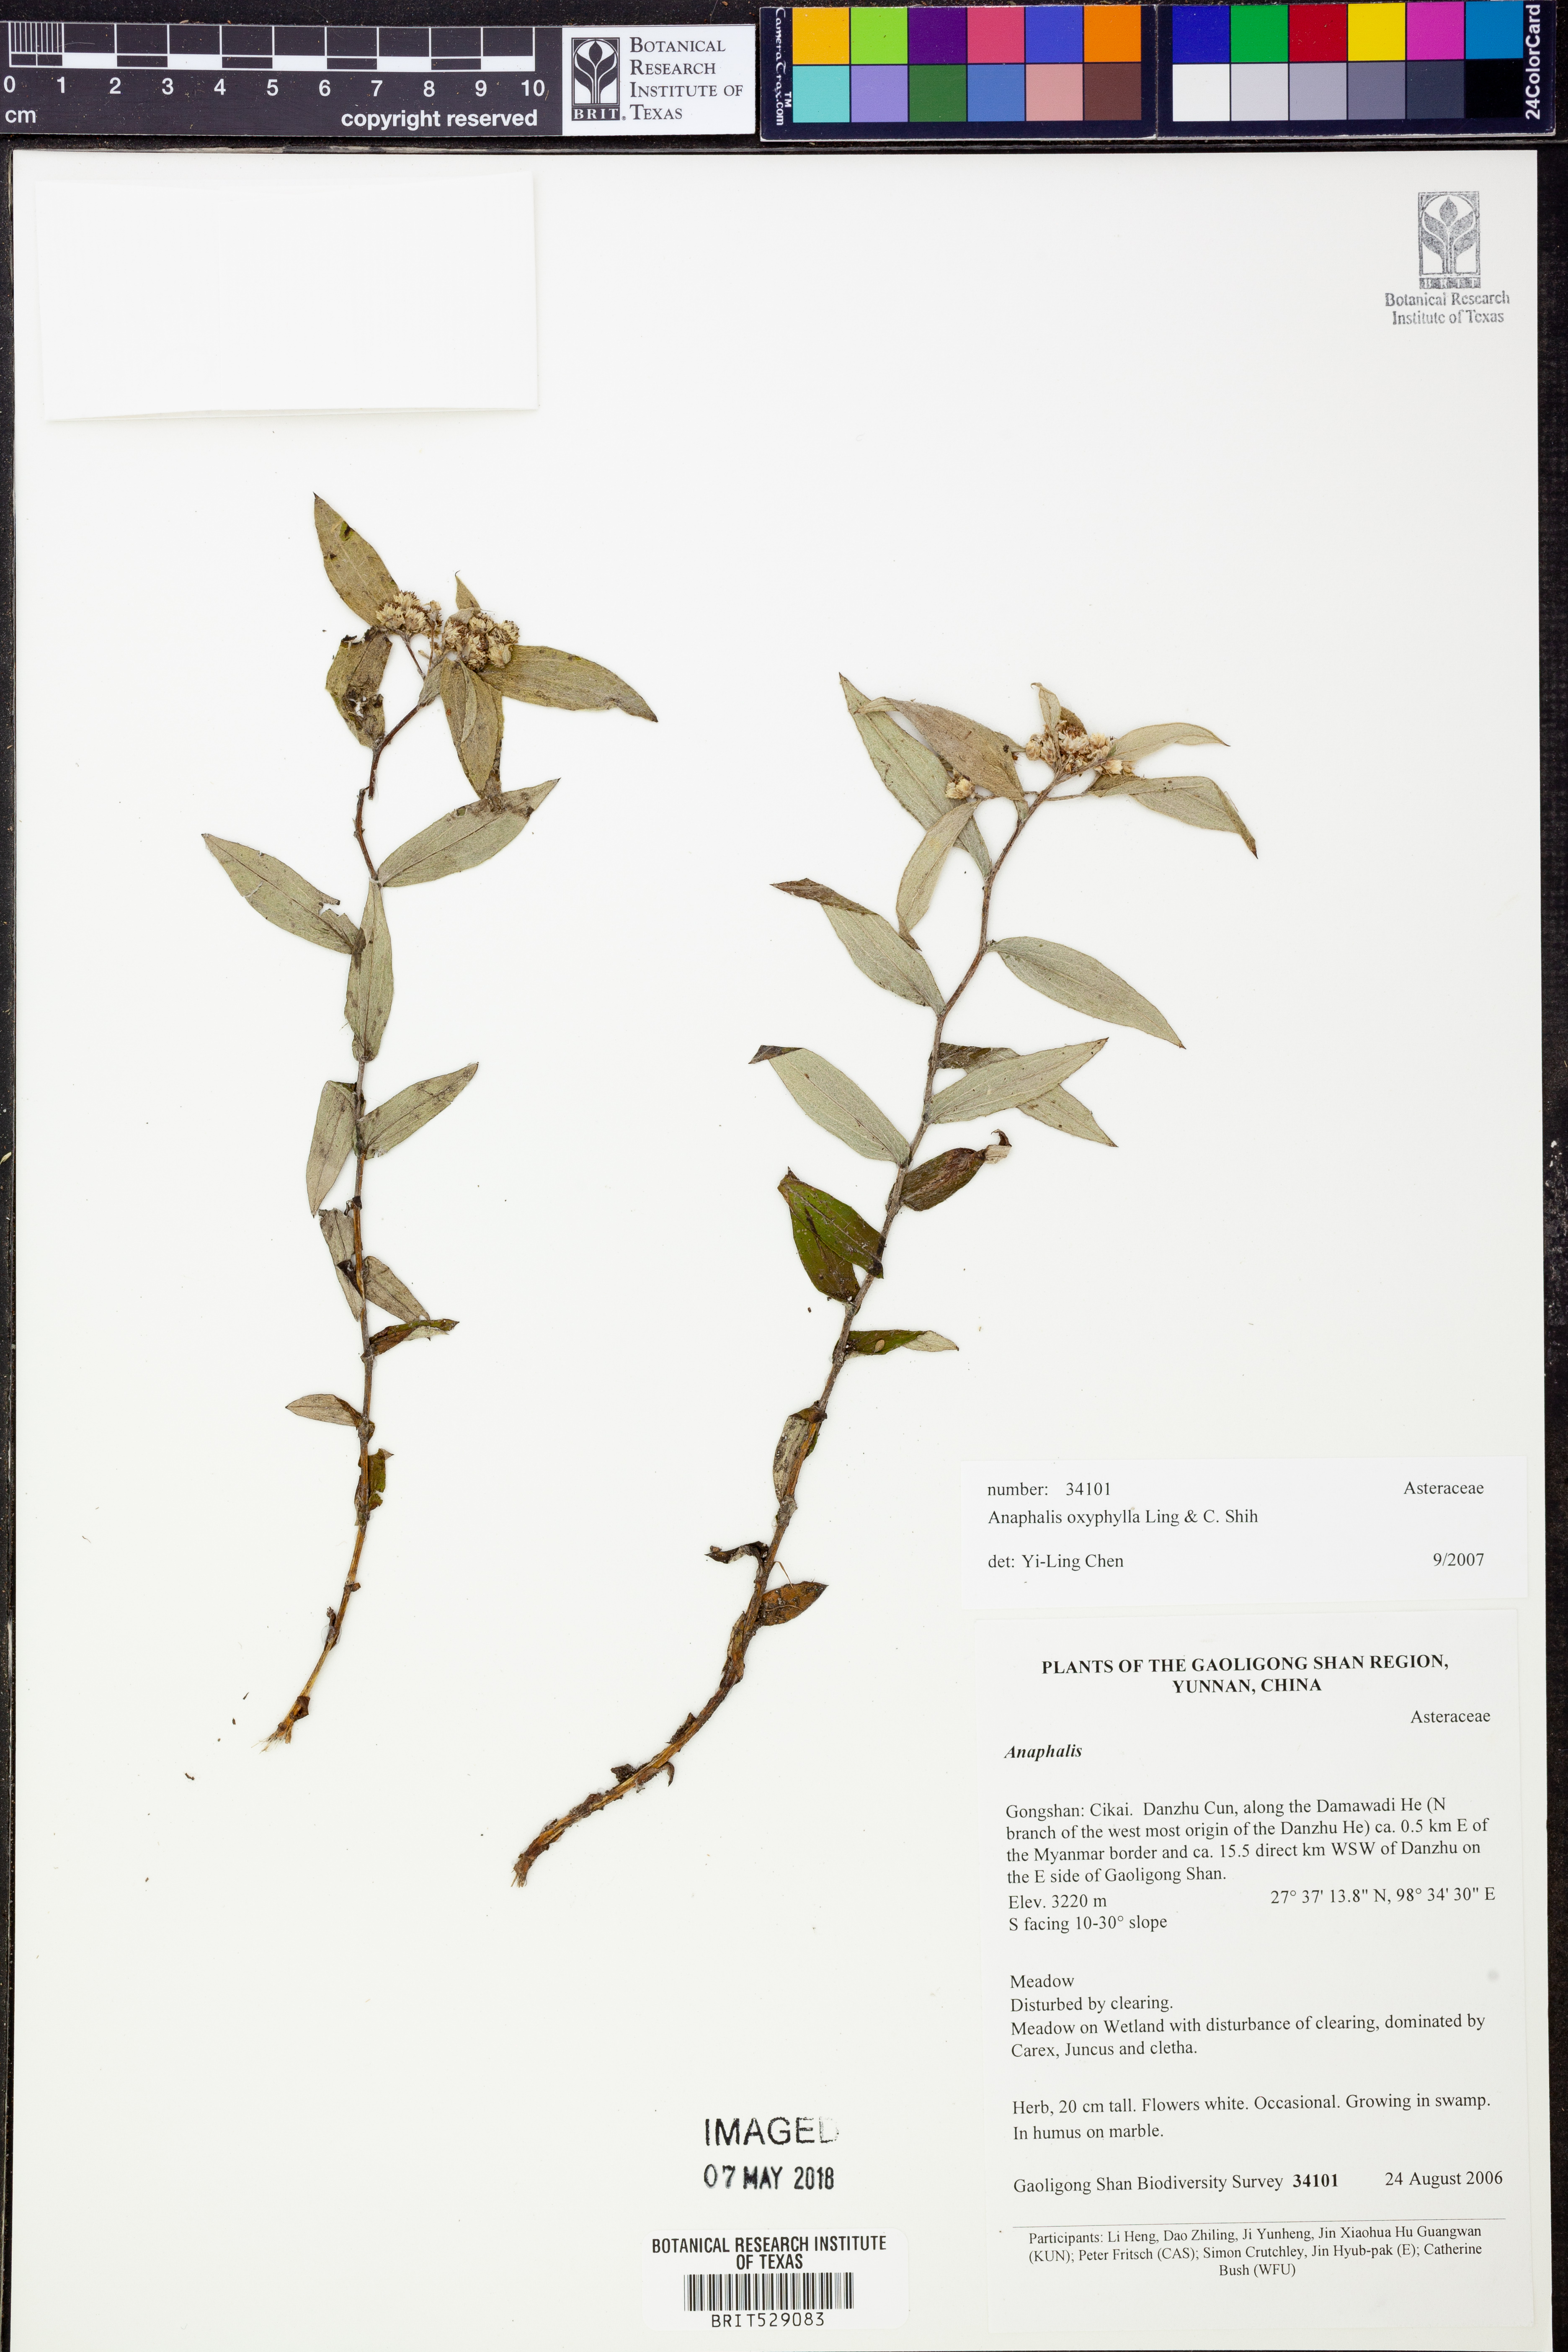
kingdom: Plantae
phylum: Tracheophyta
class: Magnoliopsida
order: Asterales
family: Asteraceae
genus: Anaphalis
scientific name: Anaphalis oxyphylla
